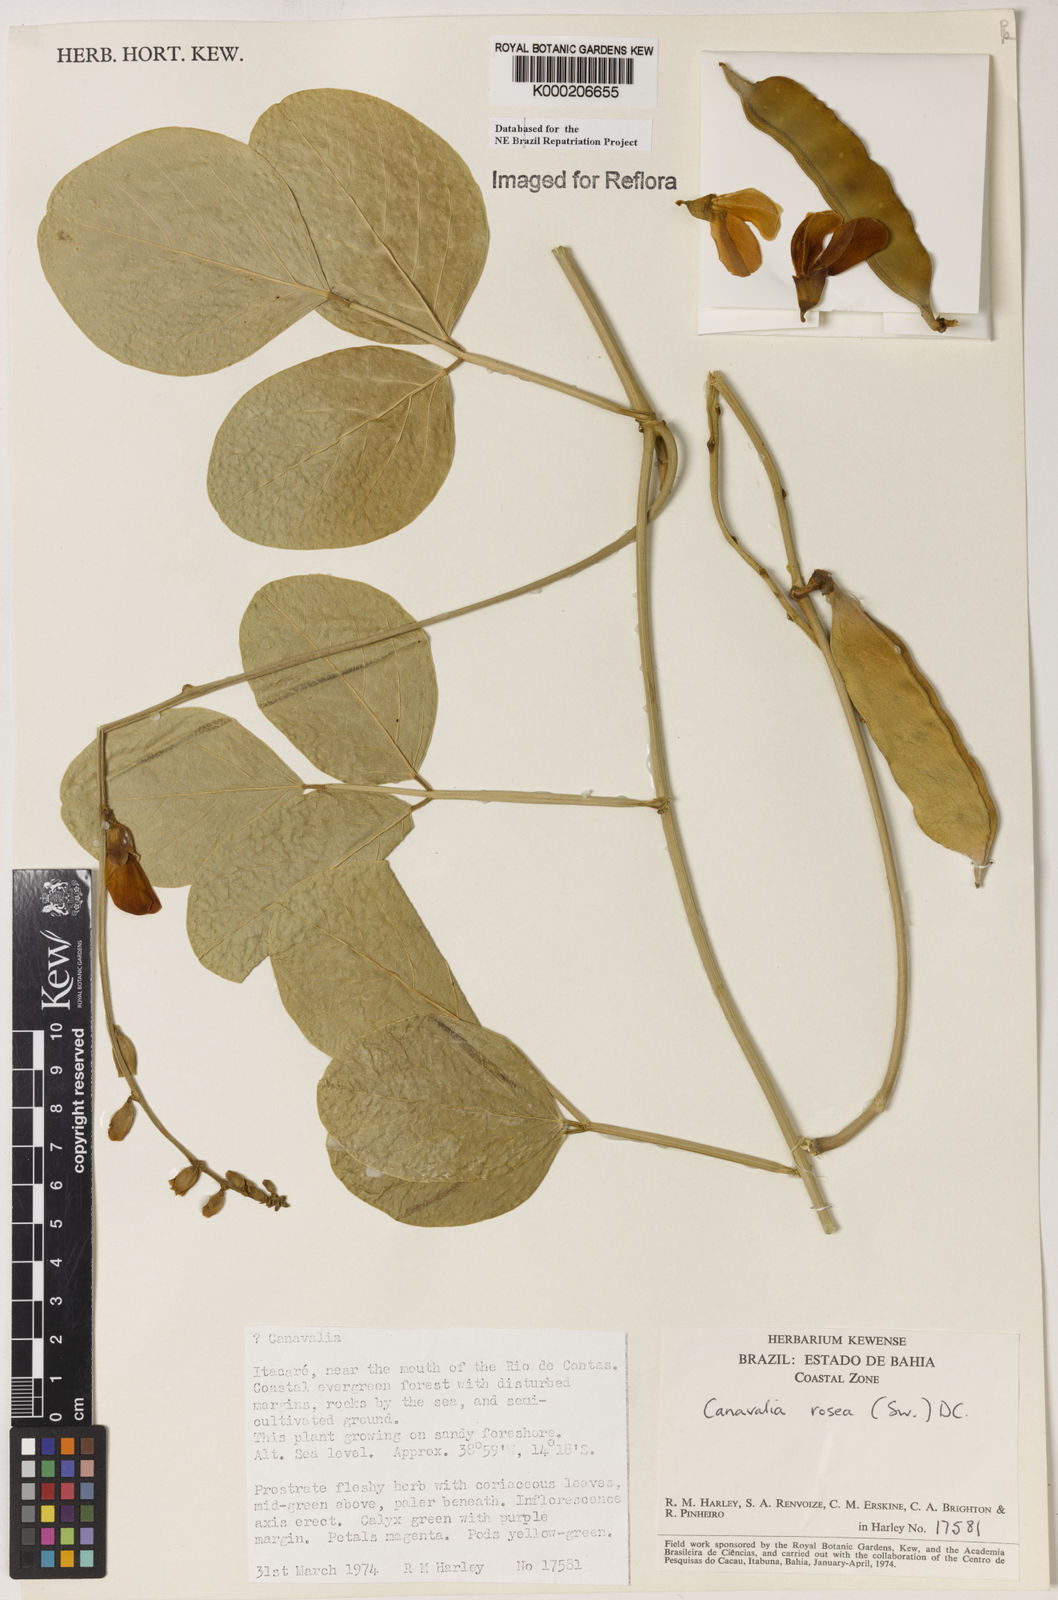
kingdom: Plantae
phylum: Tracheophyta
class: Magnoliopsida
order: Fabales
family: Fabaceae
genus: Canavalia
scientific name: Canavalia rosea
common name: Beach-bean
